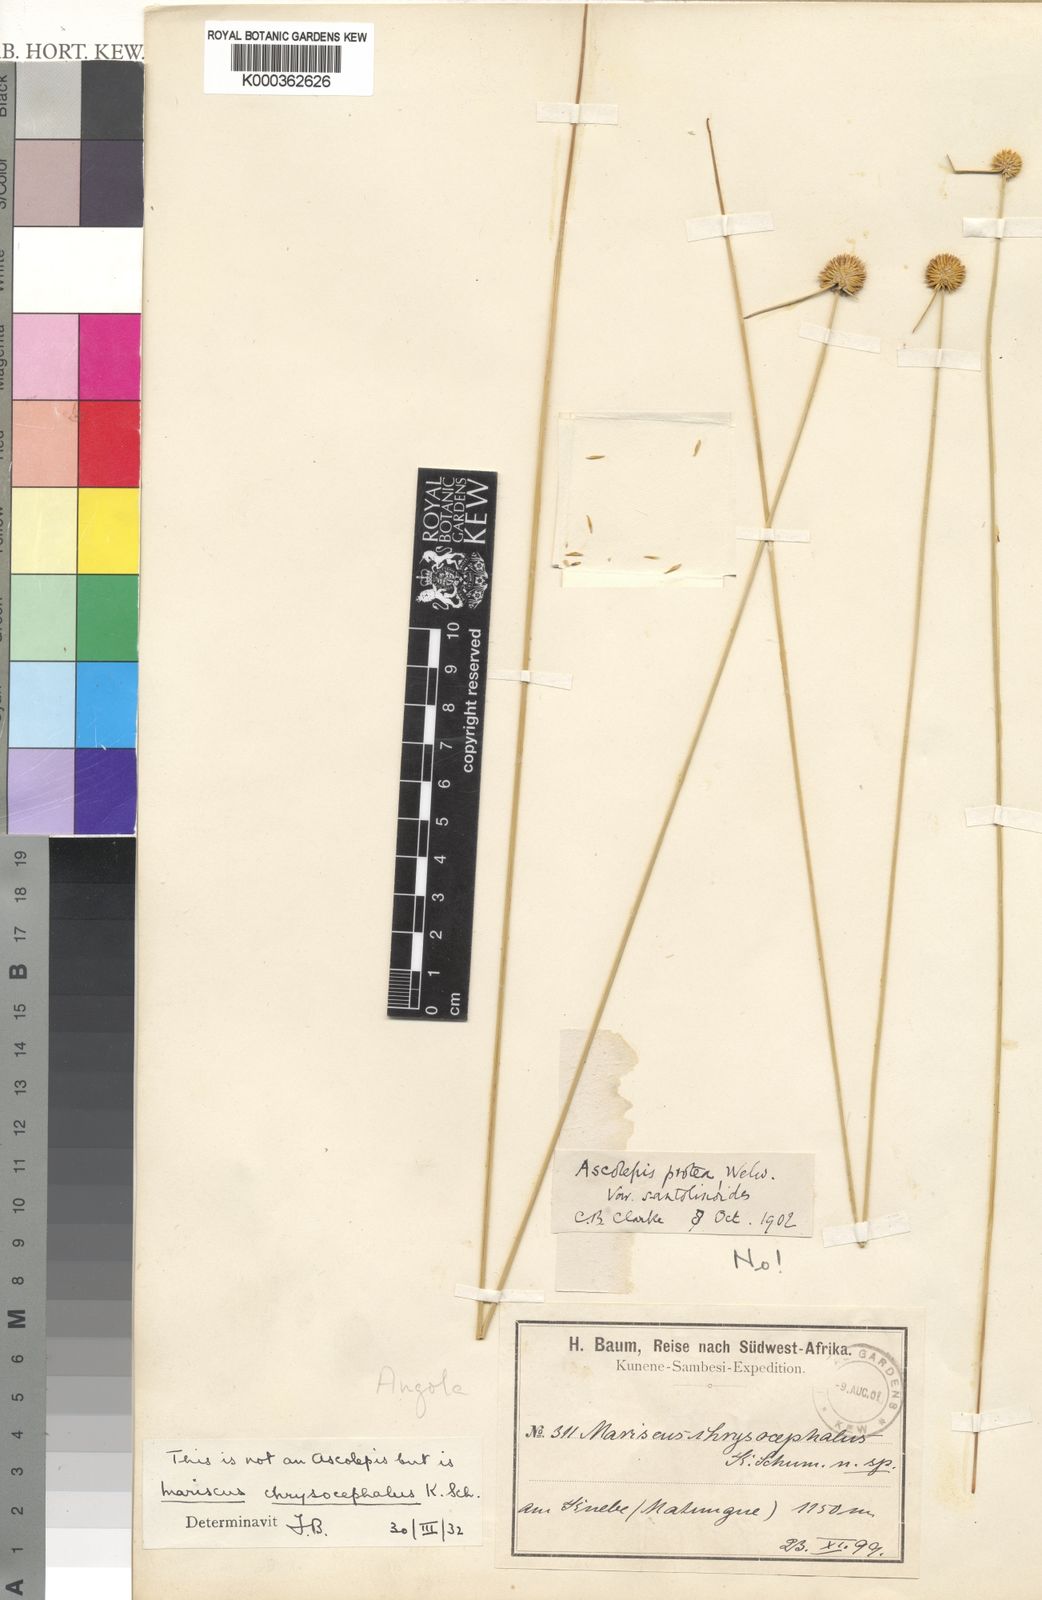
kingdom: Plantae
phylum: Tracheophyta
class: Liliopsida
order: Poales
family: Cyperaceae
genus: Cyperus
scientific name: Cyperus
